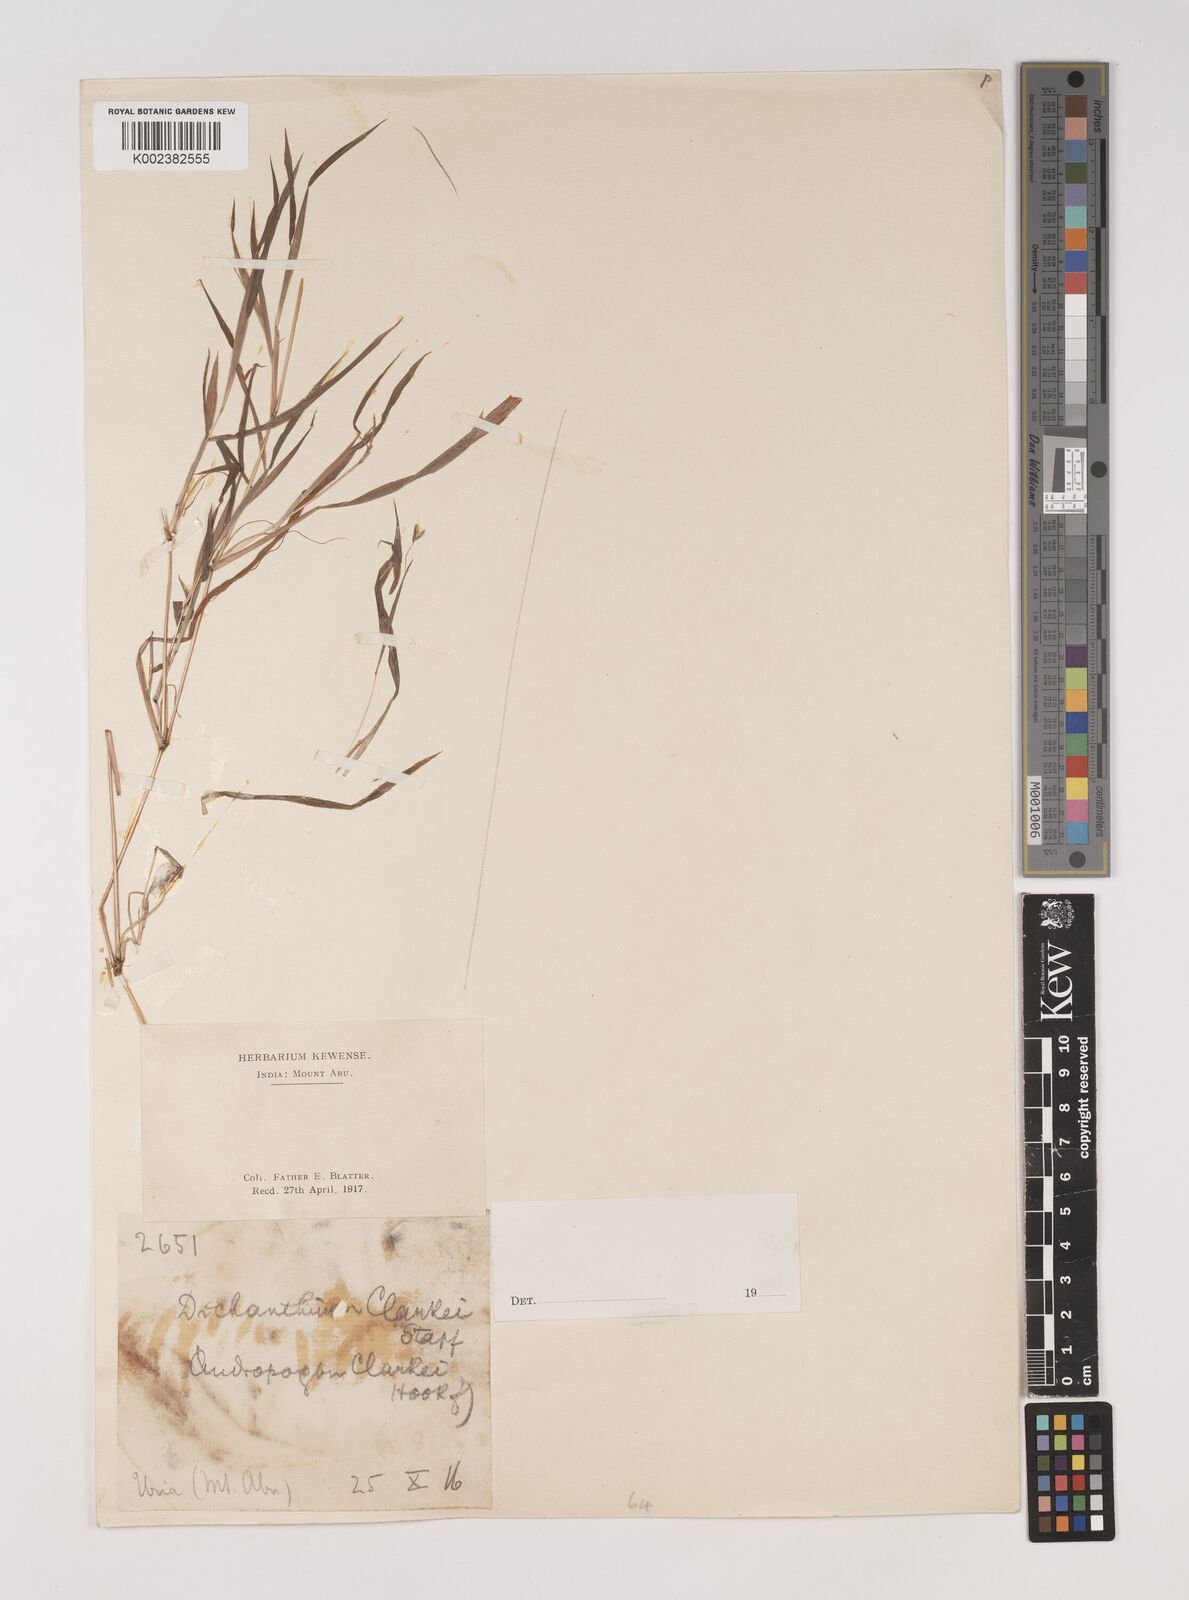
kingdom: Plantae
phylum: Tracheophyta
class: Liliopsida
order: Poales
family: Poaceae
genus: Euclasta
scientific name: Euclasta clarkei
